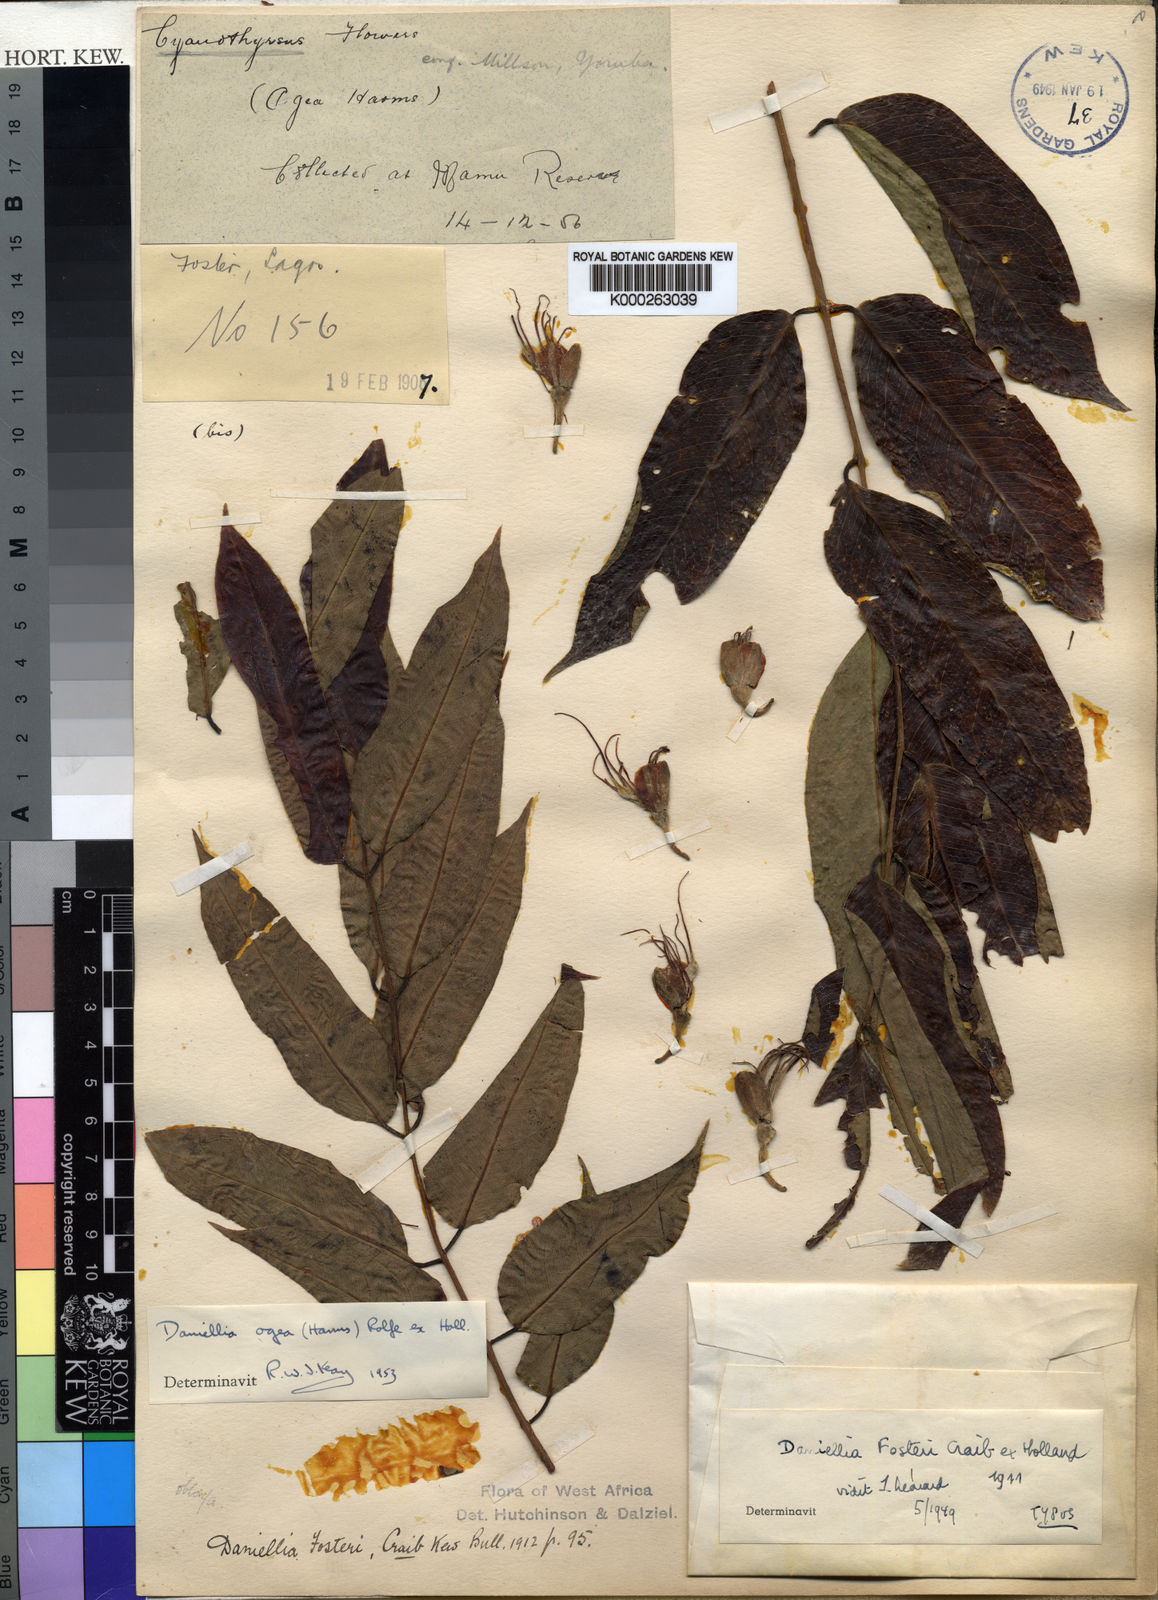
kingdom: Plantae
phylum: Tracheophyta
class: Magnoliopsida
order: Fabales
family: Fabaceae
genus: Daniellia
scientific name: Daniellia
